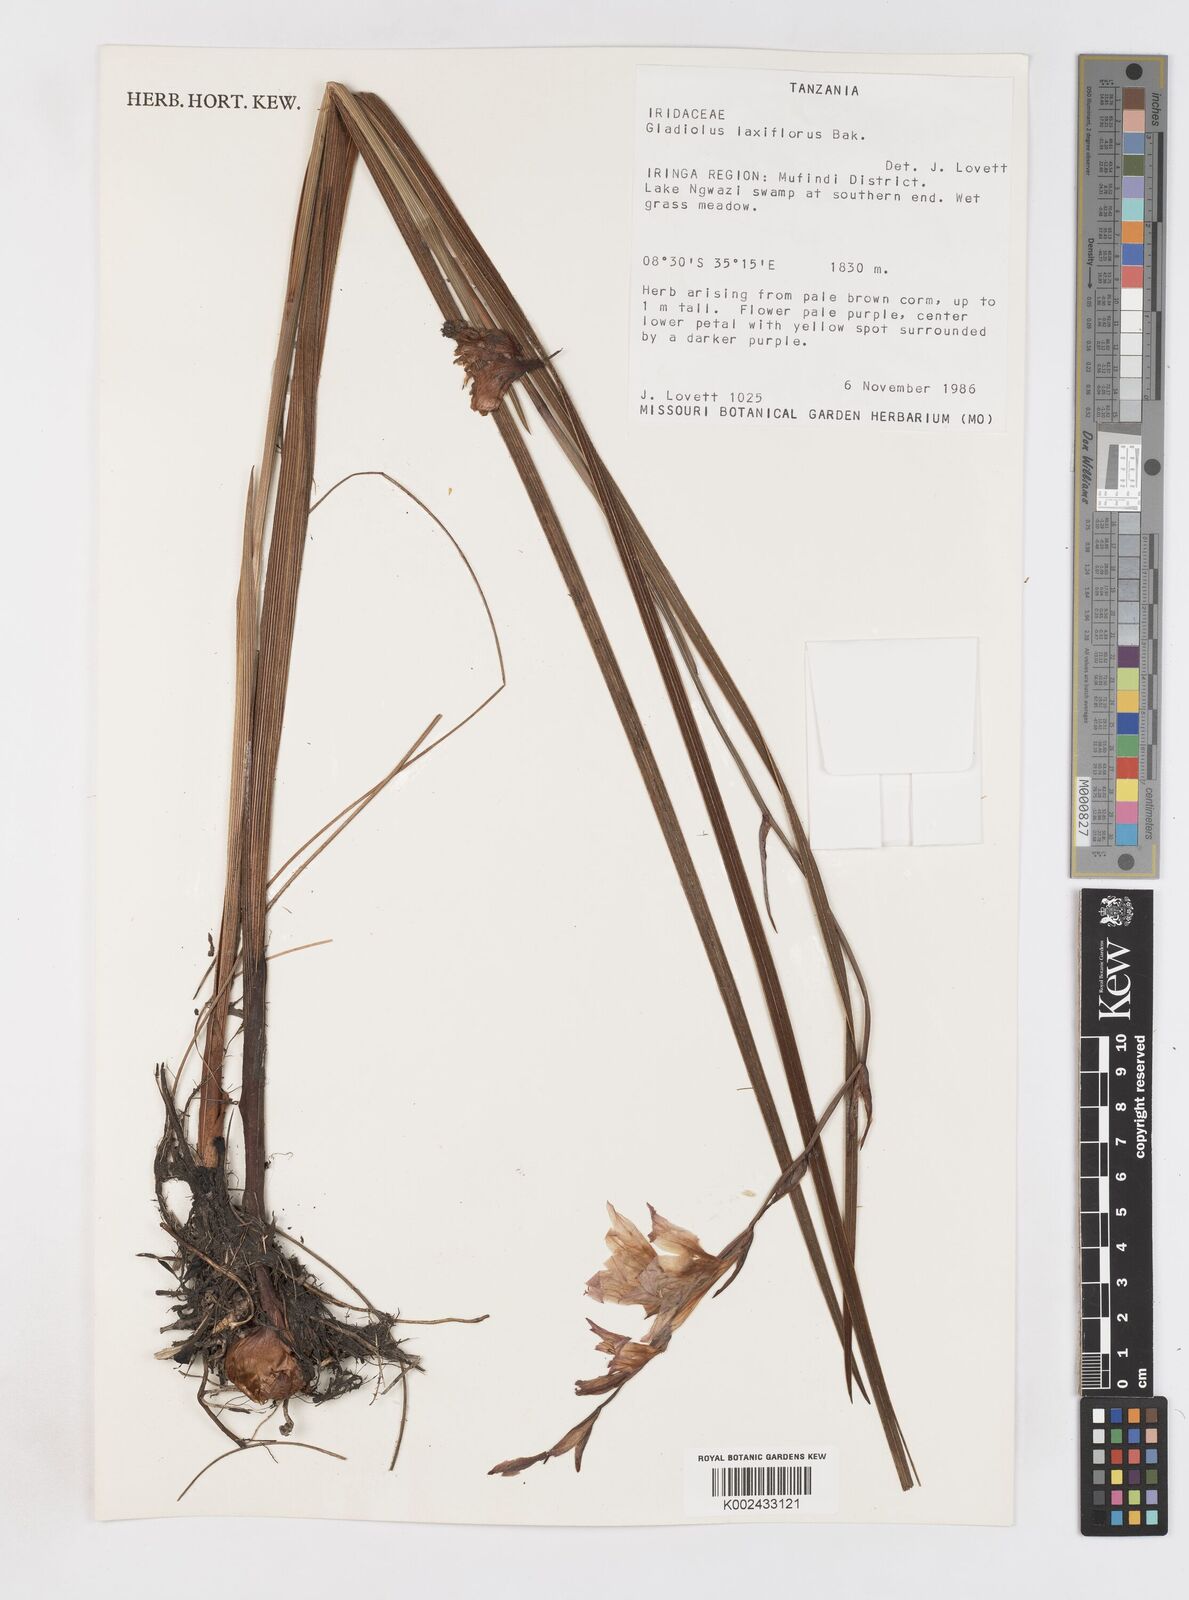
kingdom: Plantae
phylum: Tracheophyta
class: Liliopsida
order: Asparagales
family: Iridaceae
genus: Gladiolus
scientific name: Gladiolus laxiflorus
